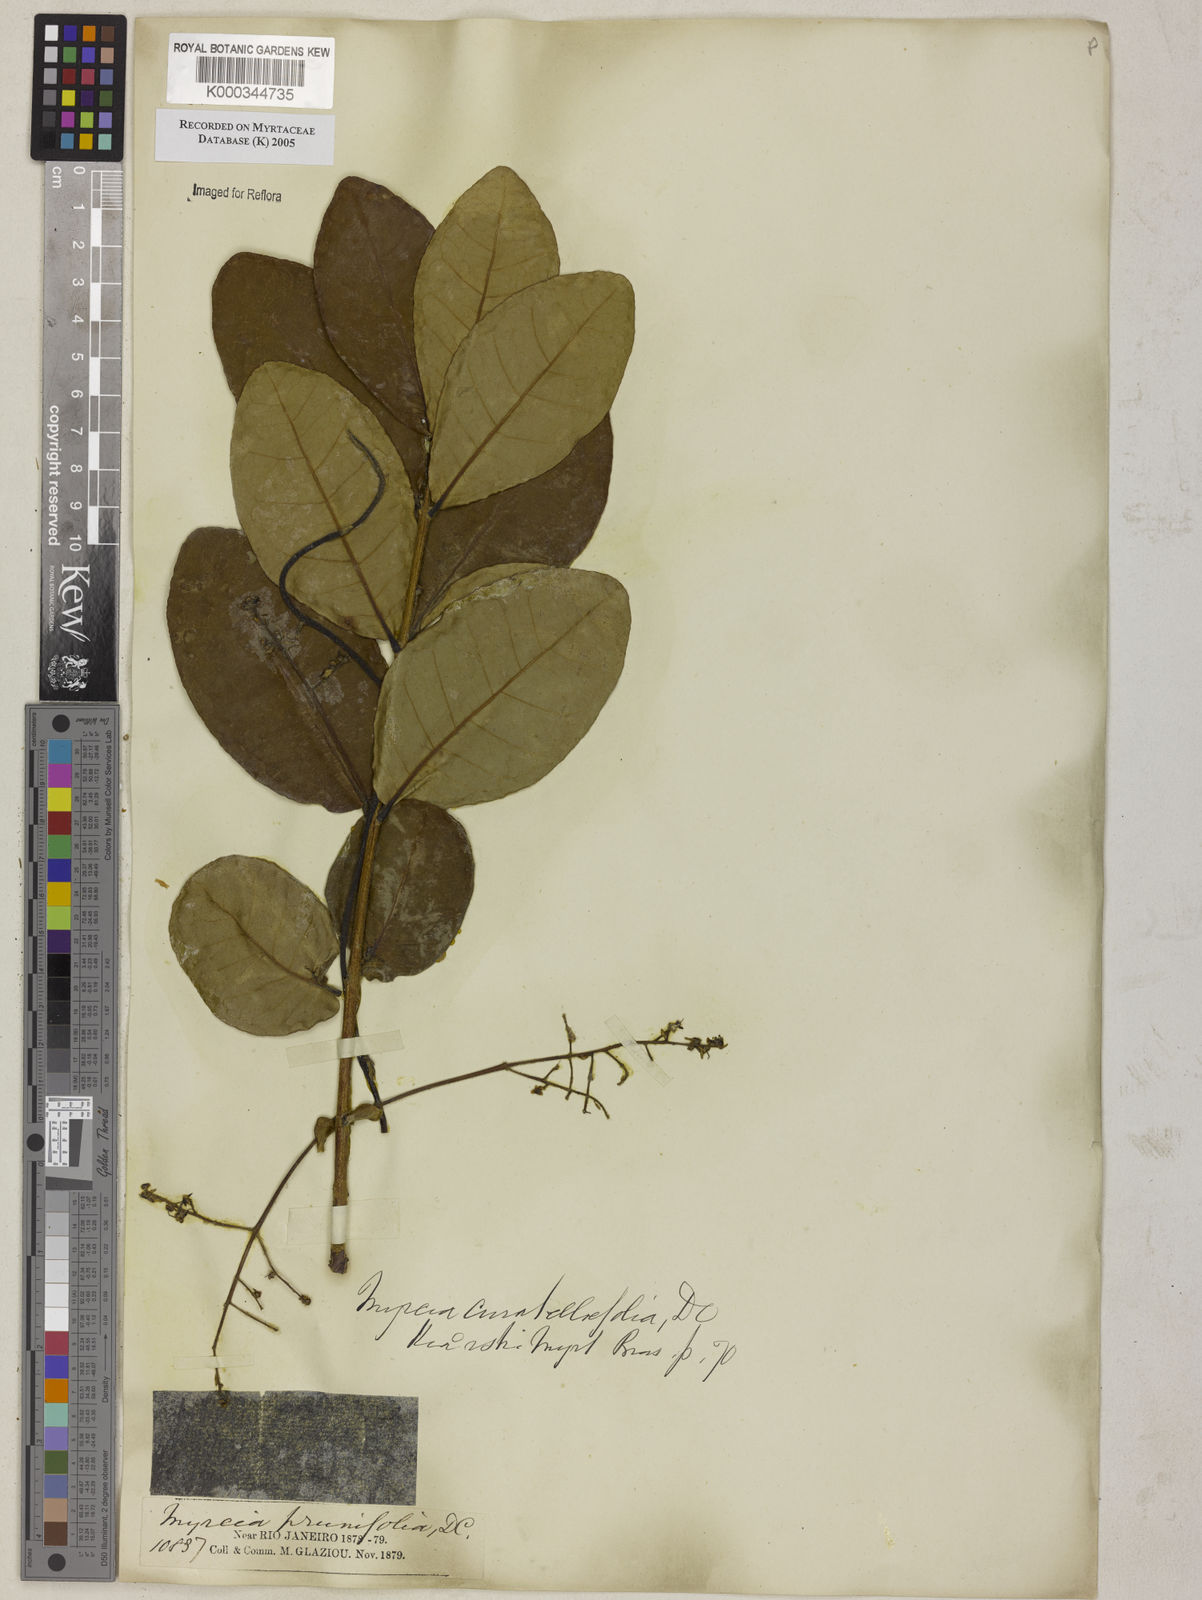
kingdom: Plantae
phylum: Tracheophyta
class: Magnoliopsida
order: Myrtales
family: Myrtaceae
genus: Myrcia
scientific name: Myrcia tomentosa
